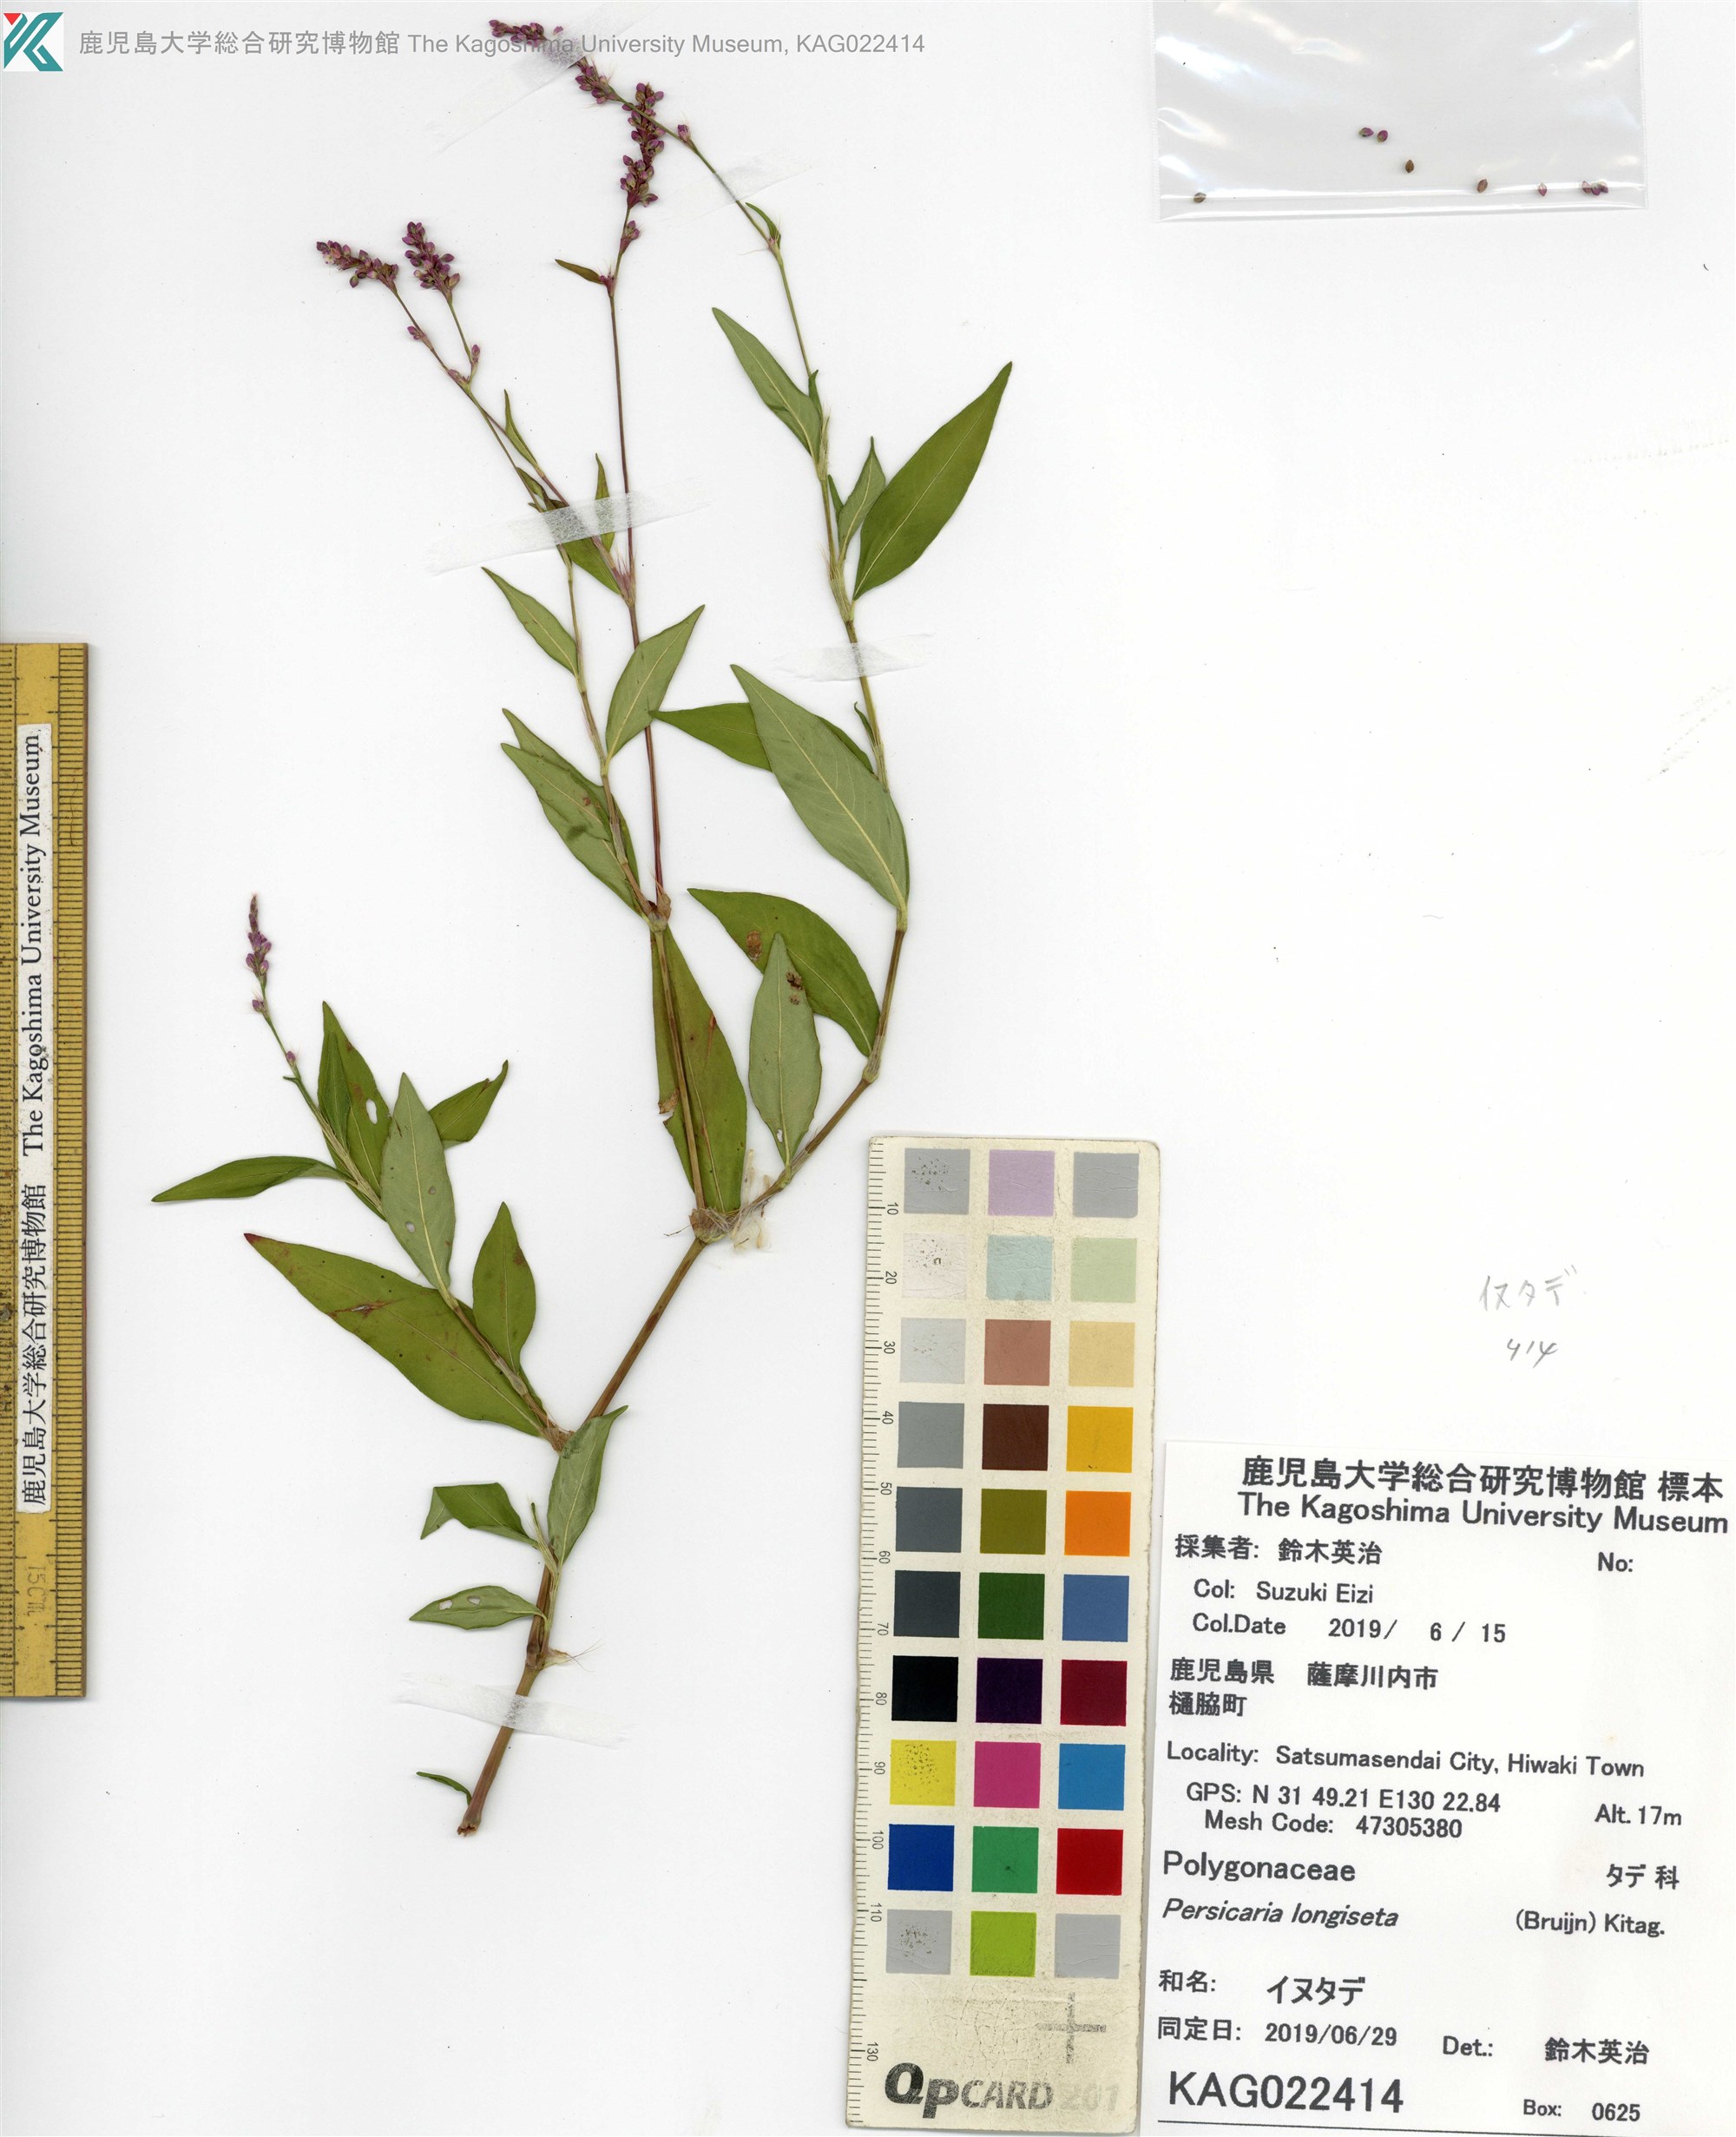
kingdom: Plantae
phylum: Tracheophyta
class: Magnoliopsida
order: Caryophyllales
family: Polygonaceae
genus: Persicaria
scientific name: Persicaria longiseta
